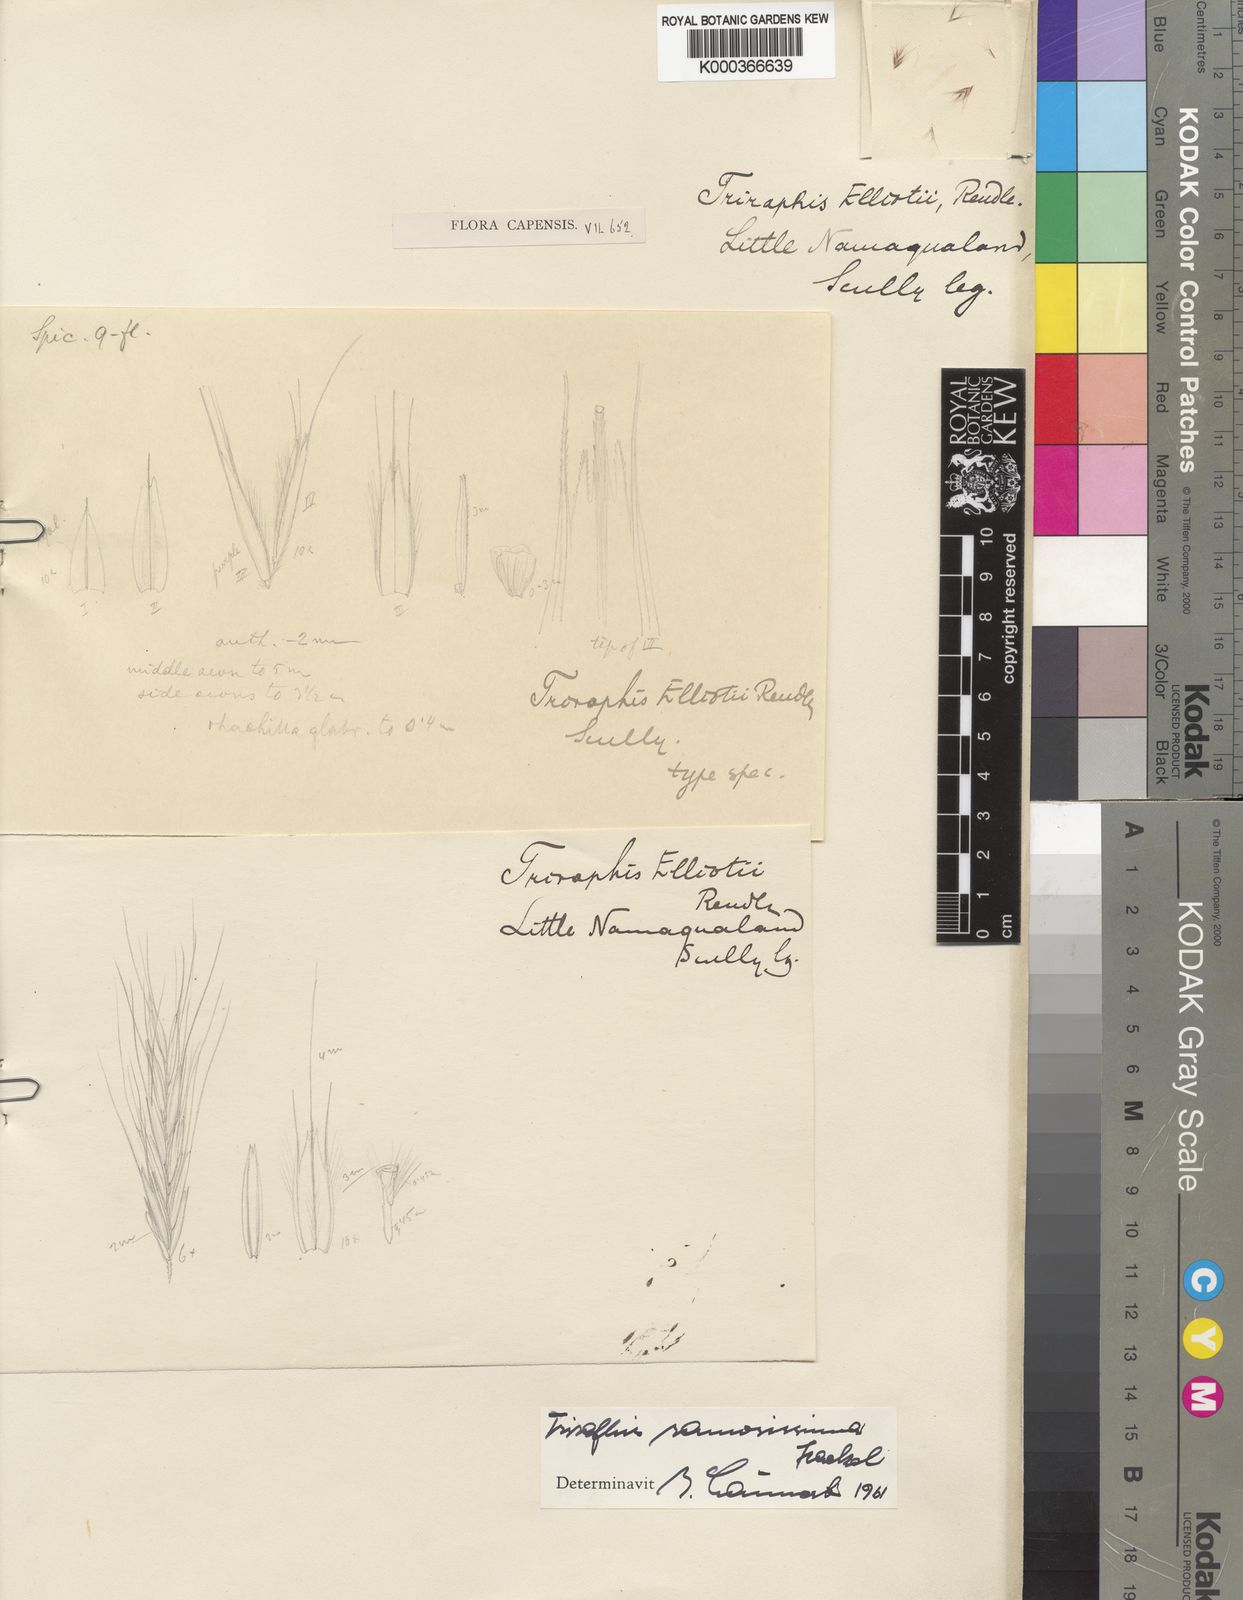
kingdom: Plantae
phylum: Tracheophyta
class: Liliopsida
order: Poales
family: Poaceae
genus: Triraphis
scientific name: Triraphis
